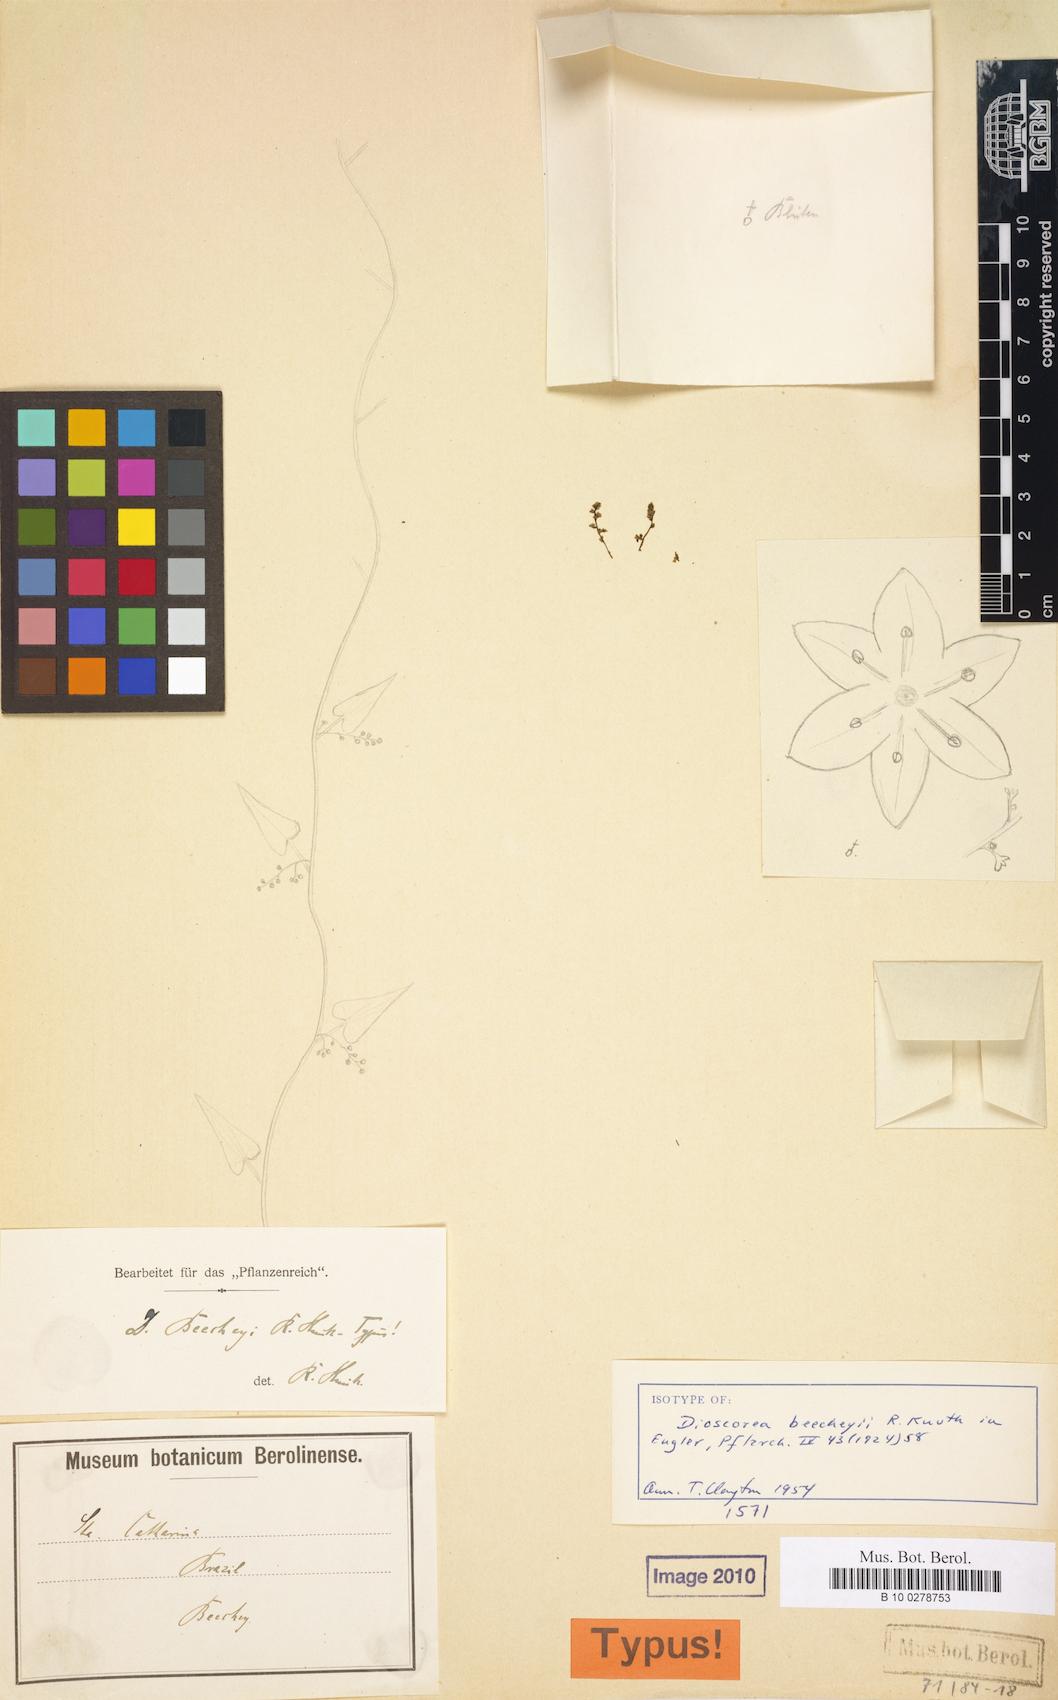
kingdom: Plantae
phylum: Tracheophyta
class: Liliopsida
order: Dioscoreales
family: Dioscoreaceae
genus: Dioscorea
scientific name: Dioscorea beecheyi
